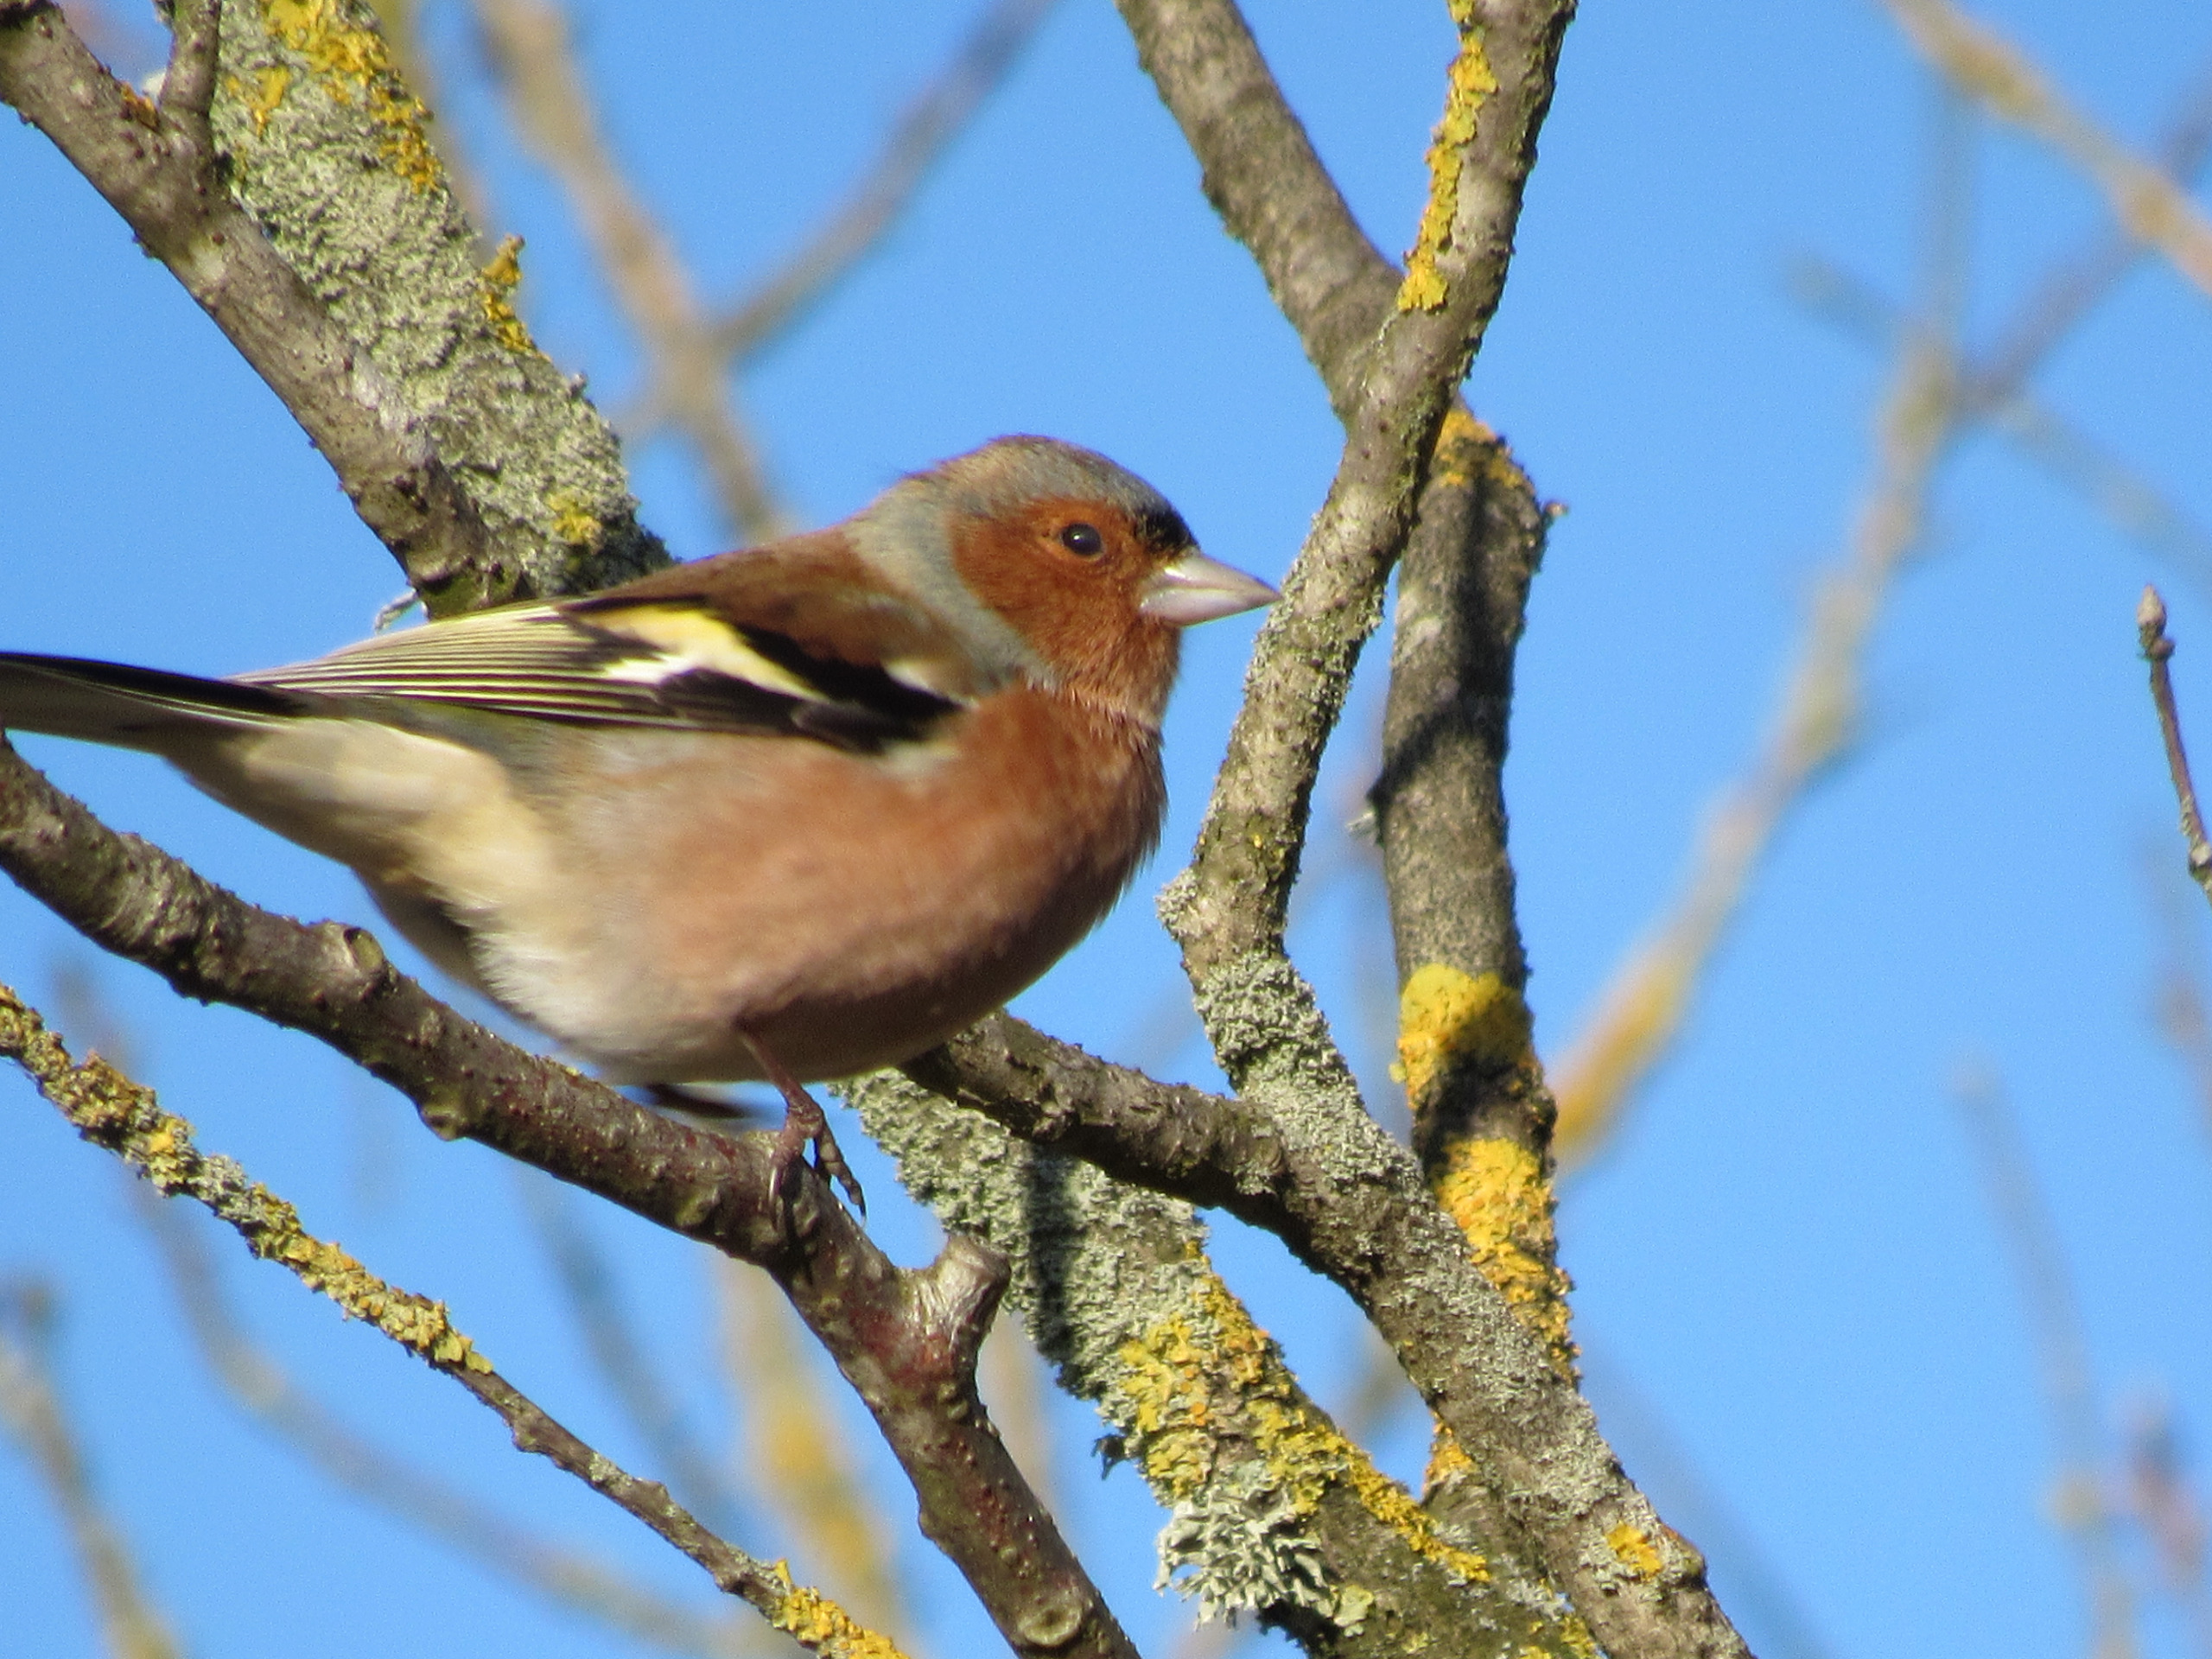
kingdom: Animalia
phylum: Chordata
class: Aves
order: Passeriformes
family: Fringillidae
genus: Fringilla
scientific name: Fringilla coelebs
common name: Bogfinke
